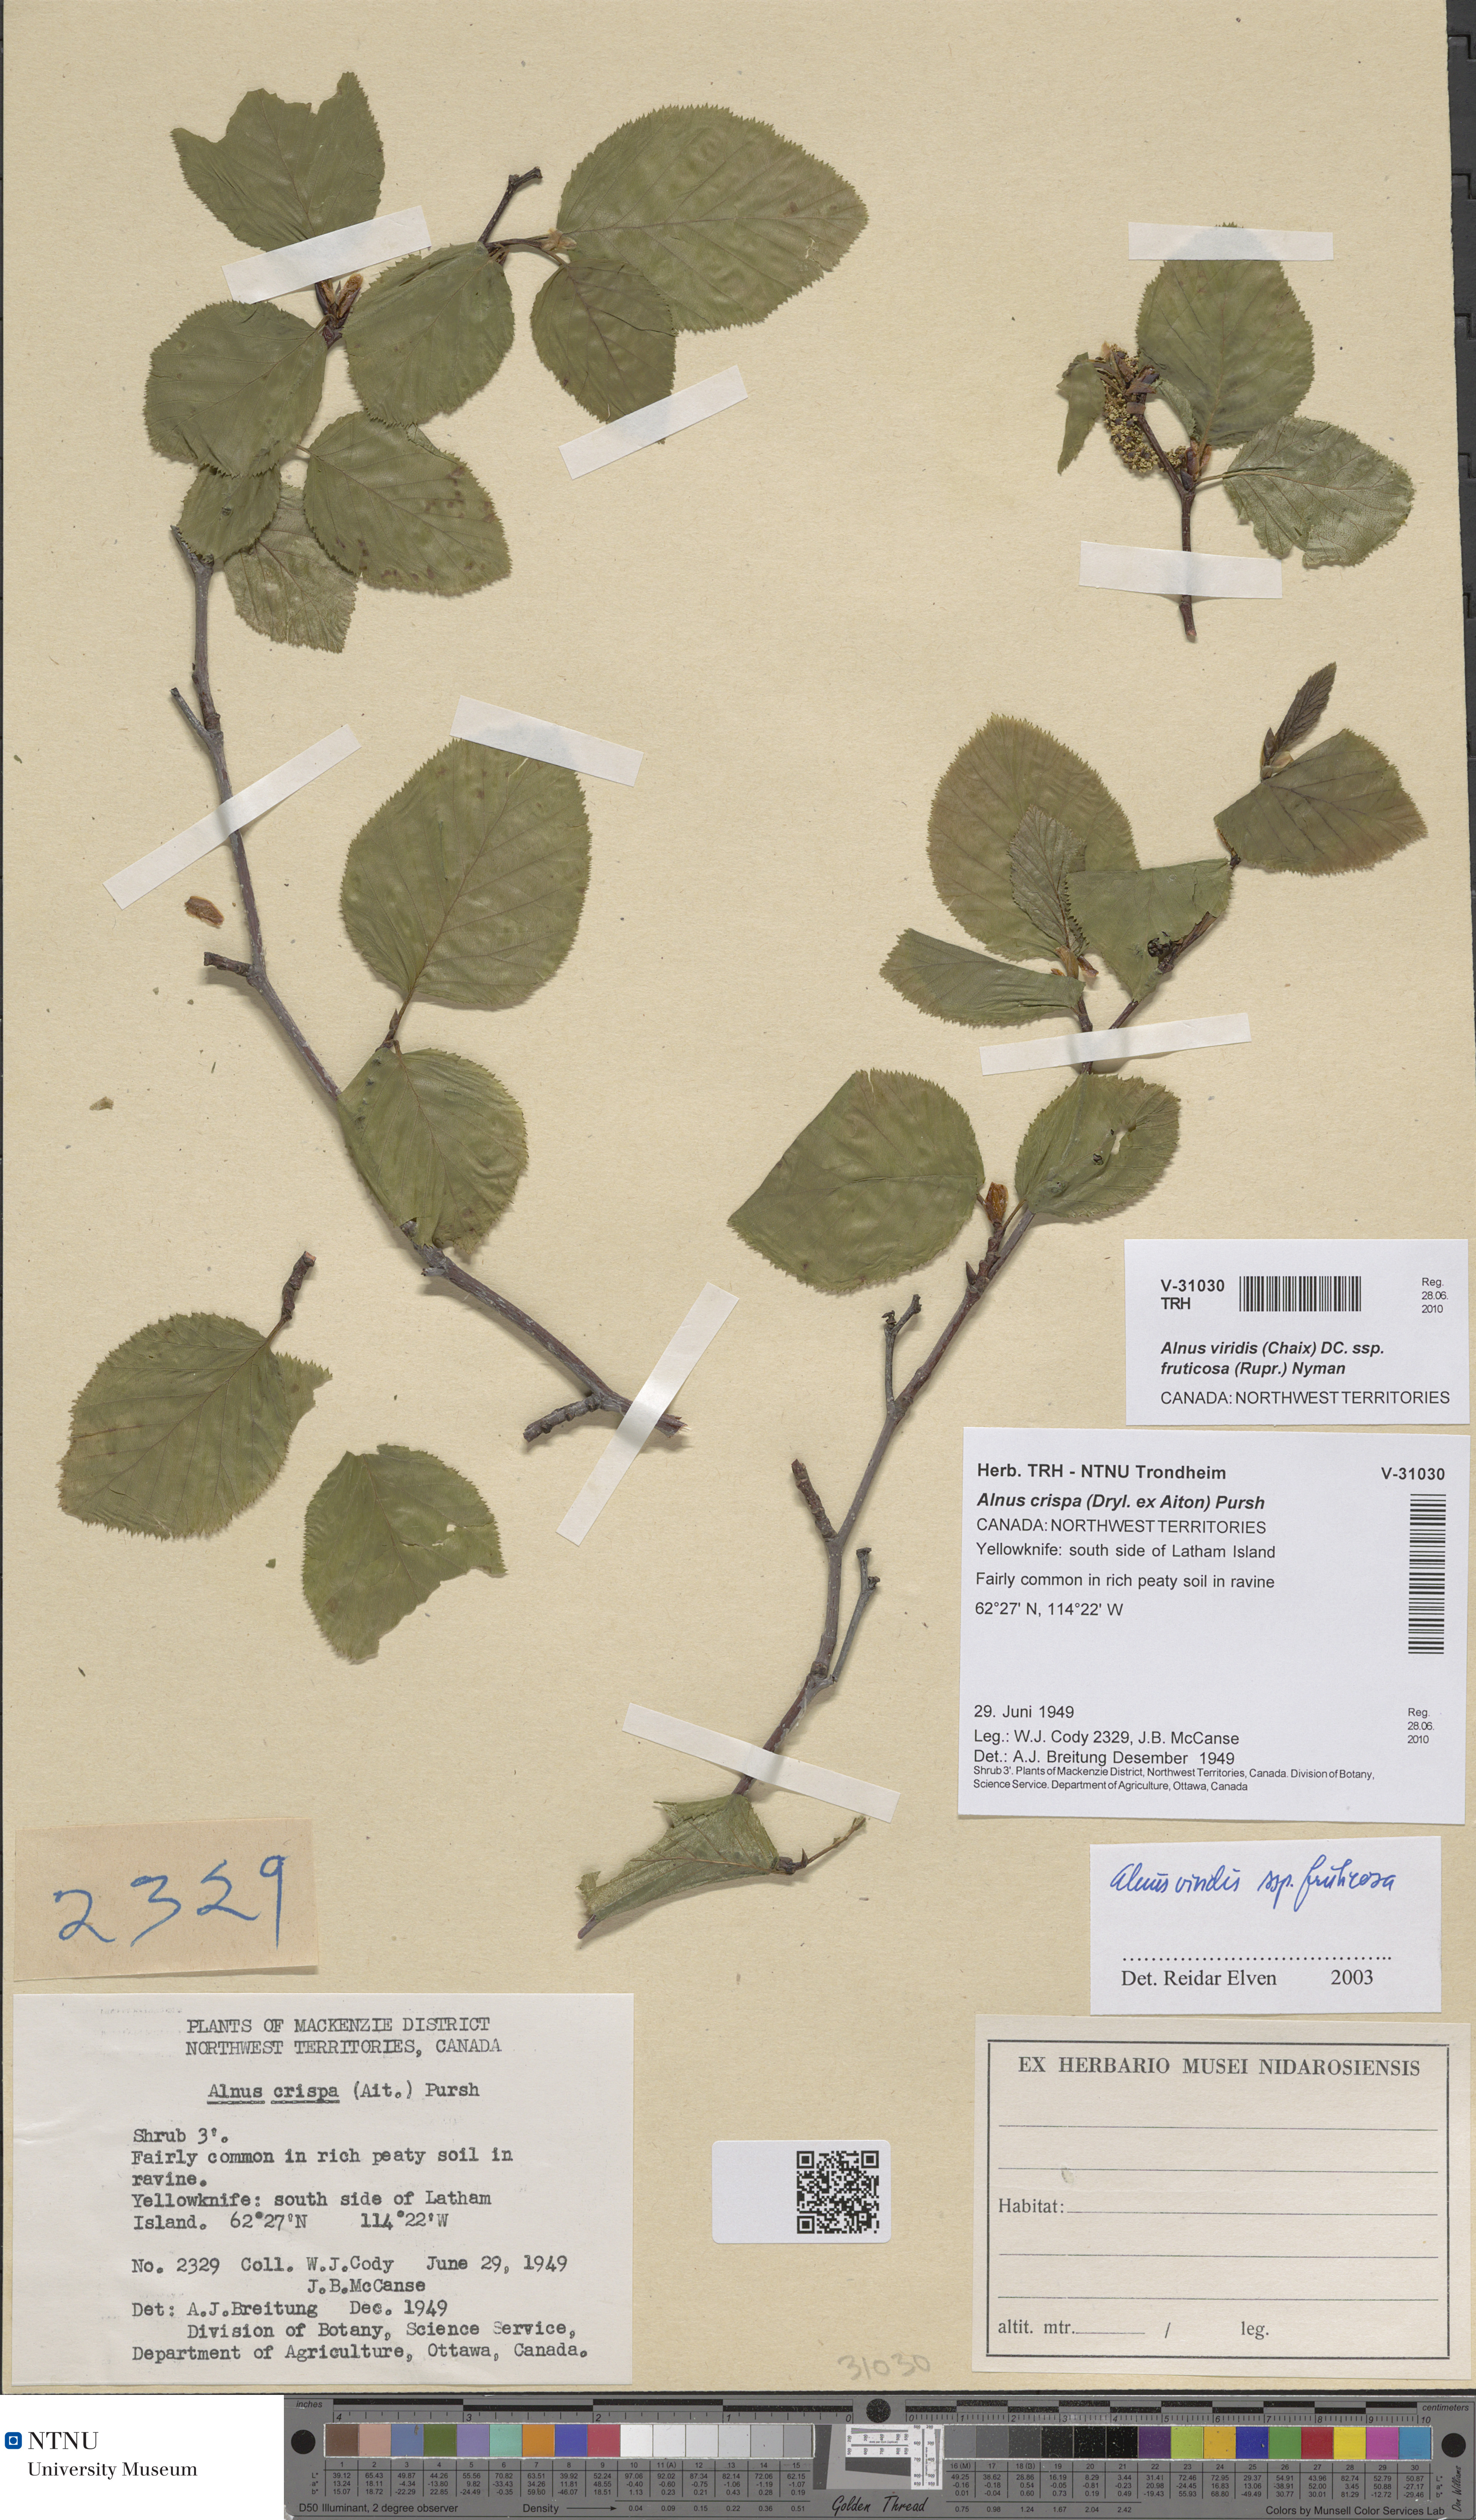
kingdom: Plantae
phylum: Tracheophyta
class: Magnoliopsida
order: Fagales
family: Betulaceae
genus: Alnus
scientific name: Alnus alnobetula
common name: Green alder
